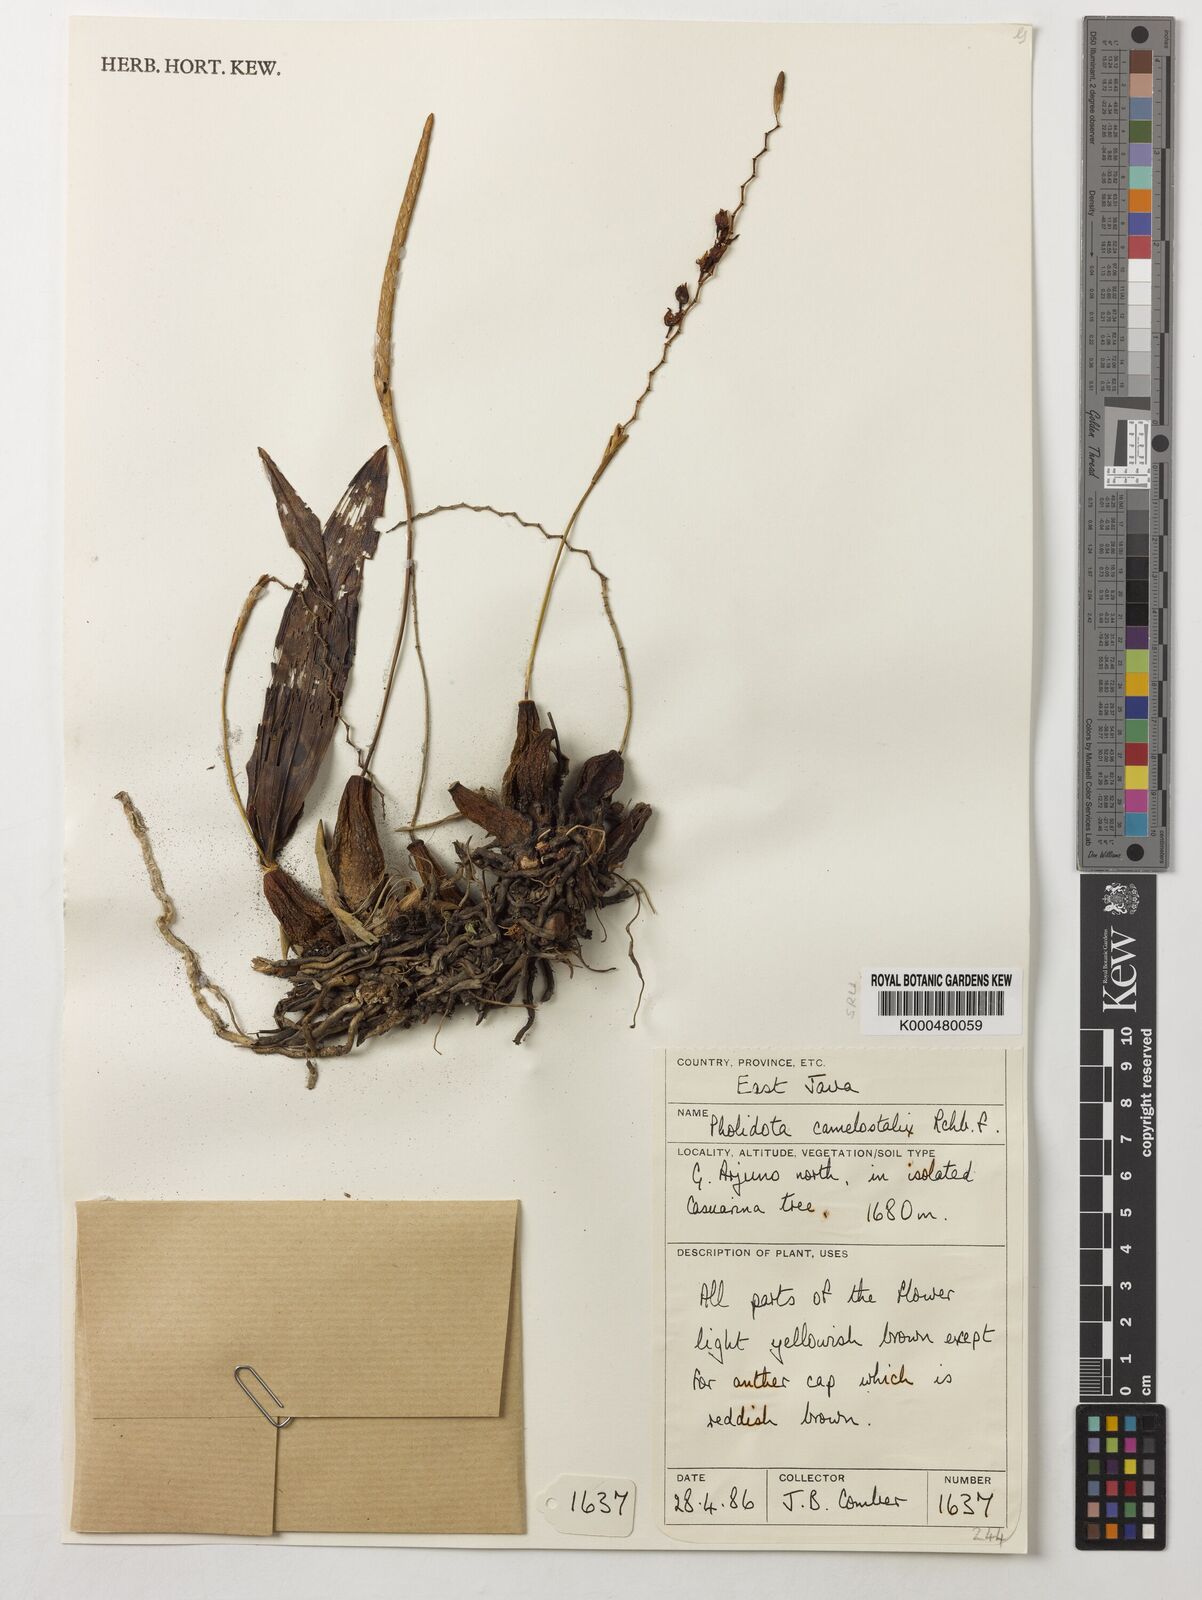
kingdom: Plantae
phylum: Tracheophyta
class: Liliopsida
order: Asparagales
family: Orchidaceae
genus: Coelogyne
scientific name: Coelogyne camelostalix
